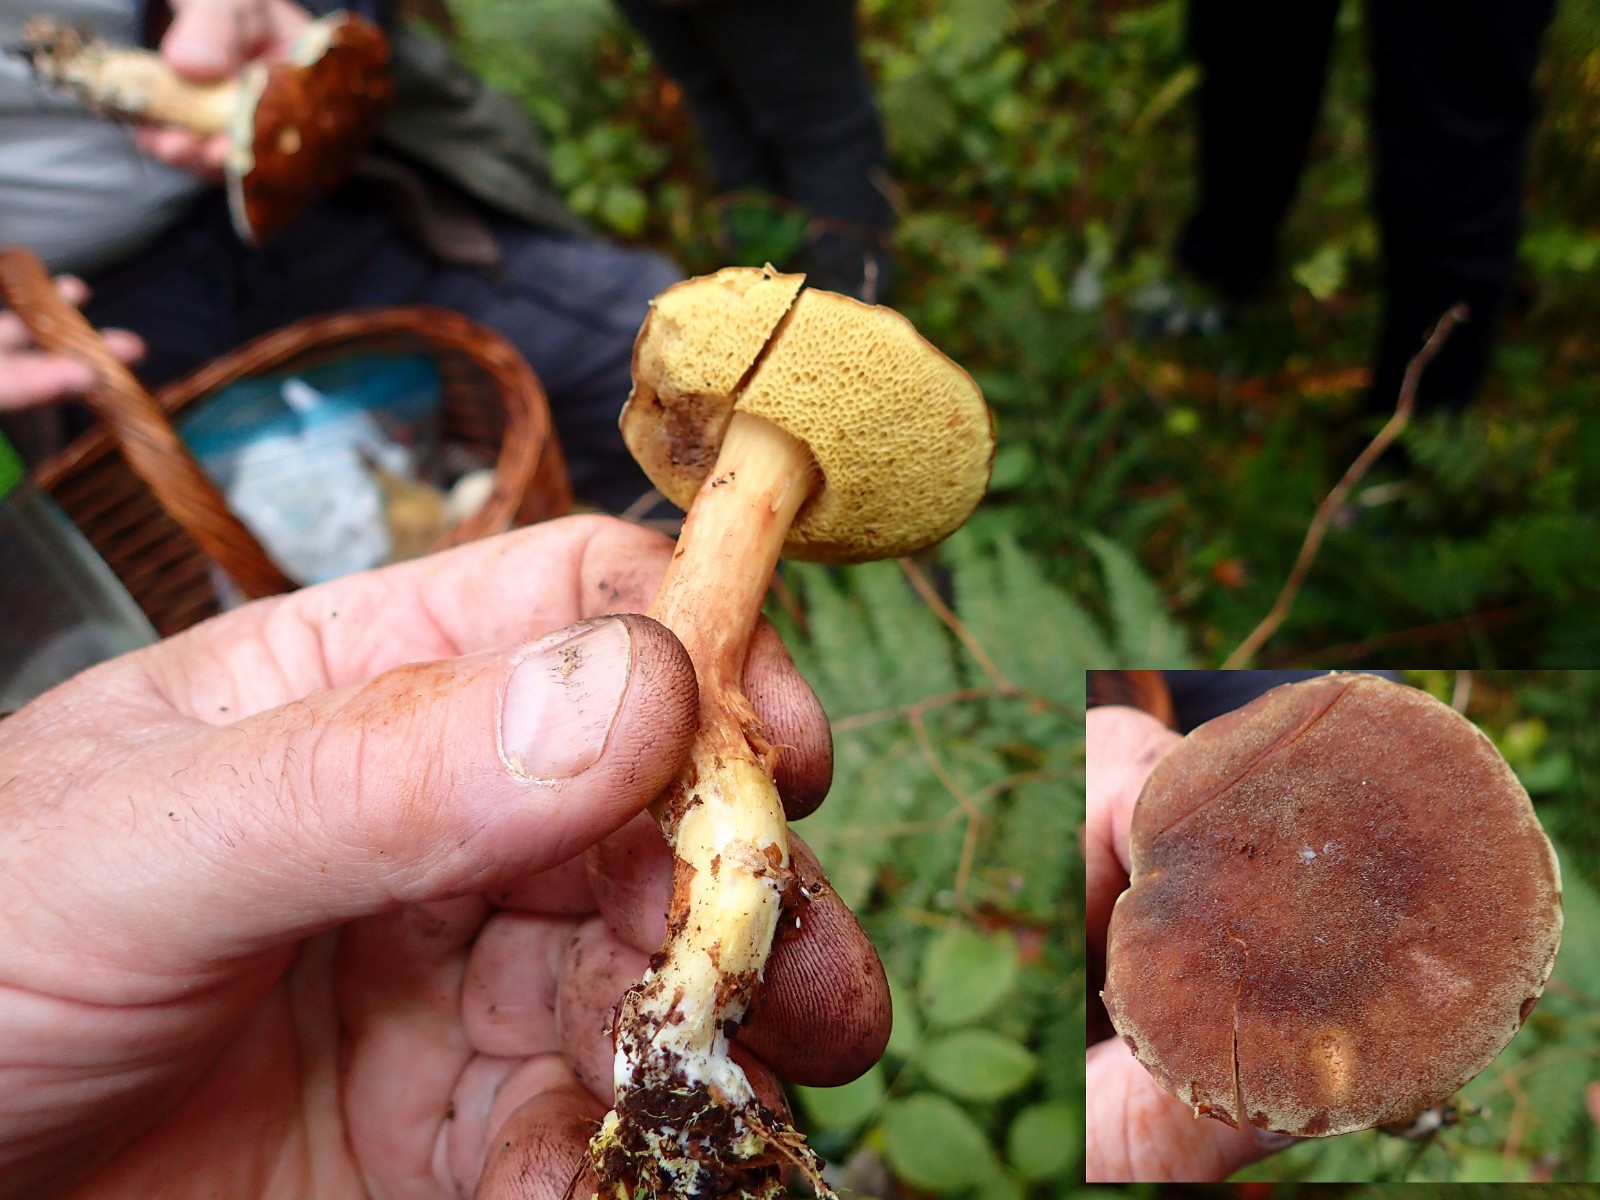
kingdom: Fungi
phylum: Basidiomycota
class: Agaricomycetes
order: Boletales
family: Boletaceae
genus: Xerocomus
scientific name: Xerocomus ferrugineus
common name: vaskeskinds-rørhat
